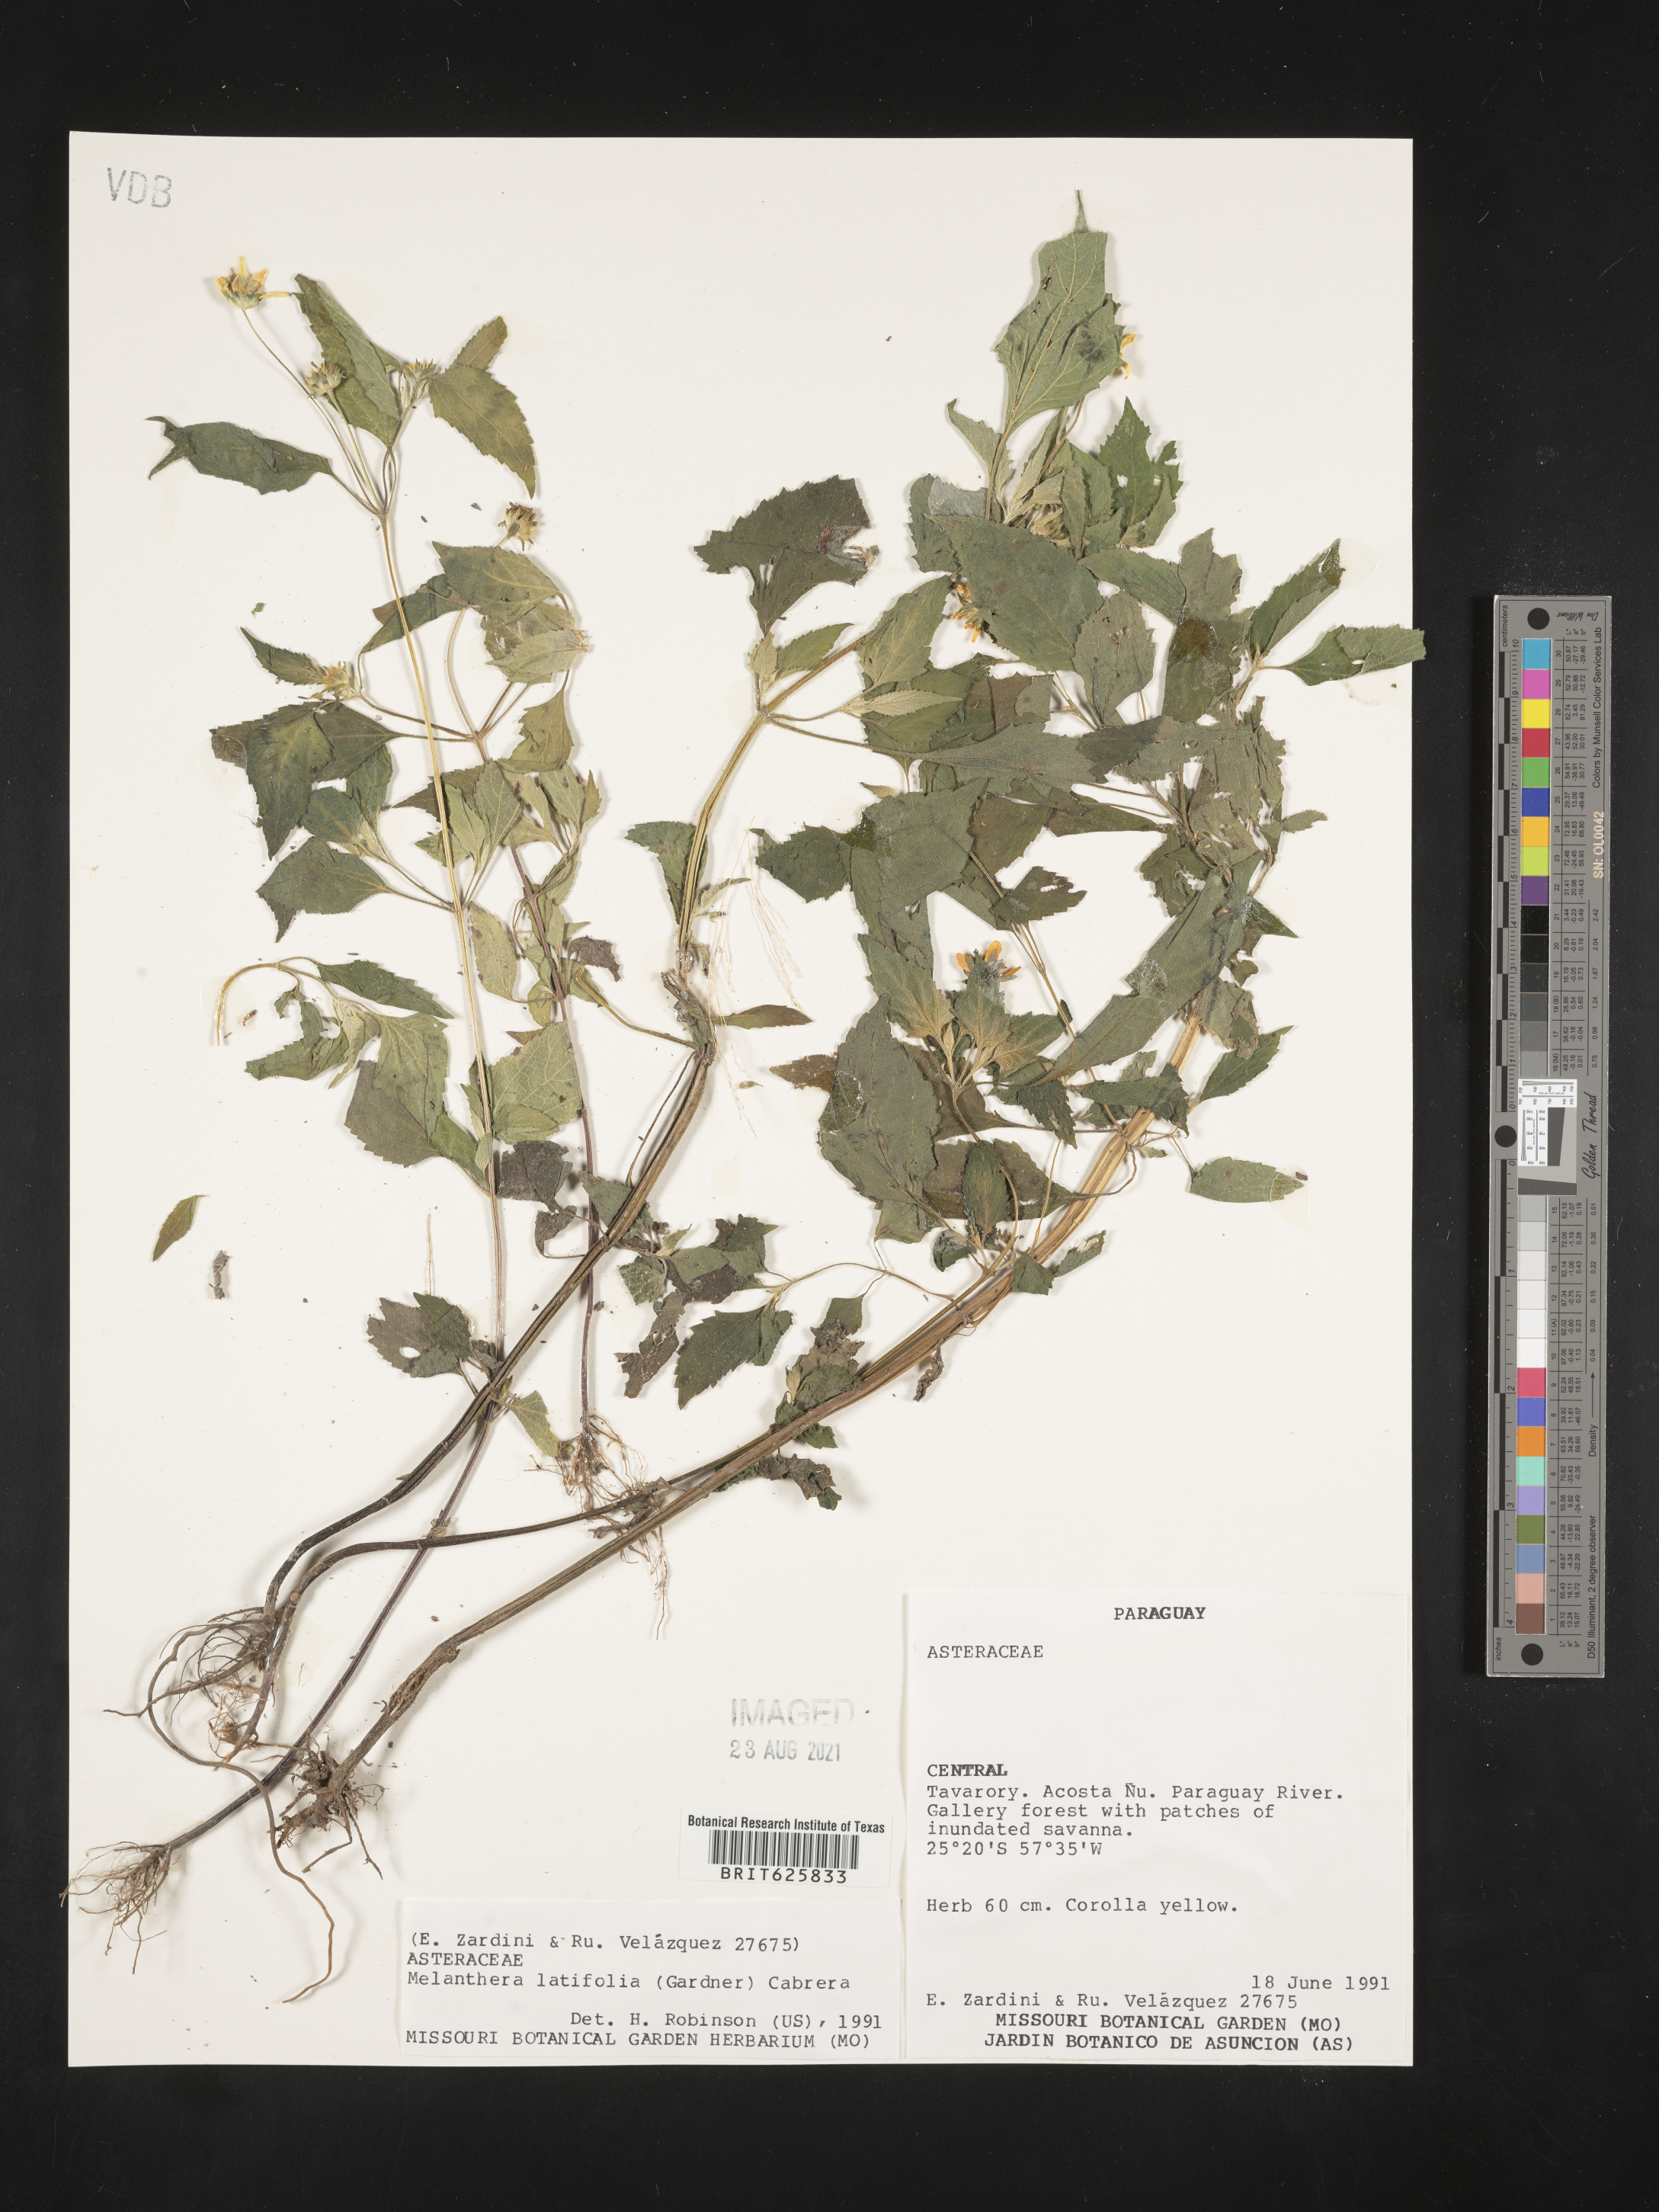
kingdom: Plantae
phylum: Tracheophyta
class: Magnoliopsida
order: Asterales
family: Asteraceae
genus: Echinocephalum
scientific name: Echinocephalum latifolium
